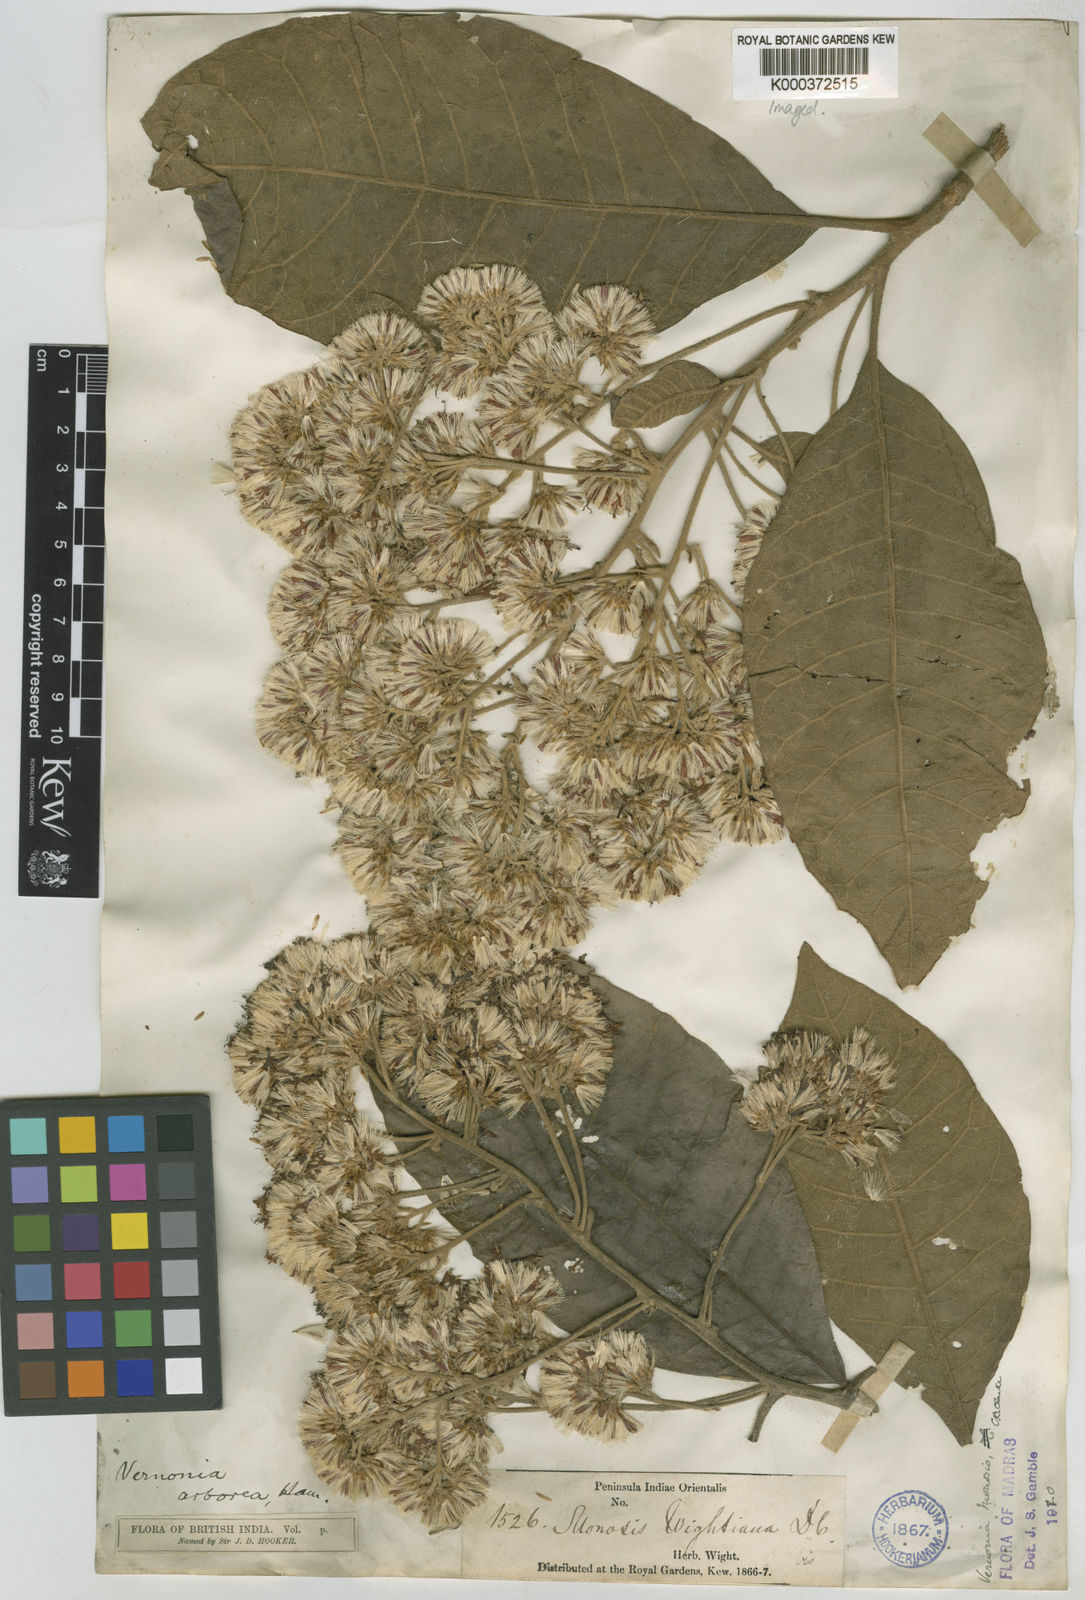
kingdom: Plantae
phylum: Tracheophyta
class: Magnoliopsida
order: Asterales
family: Asteraceae
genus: Strobocalyx
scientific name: Strobocalyx arborea
